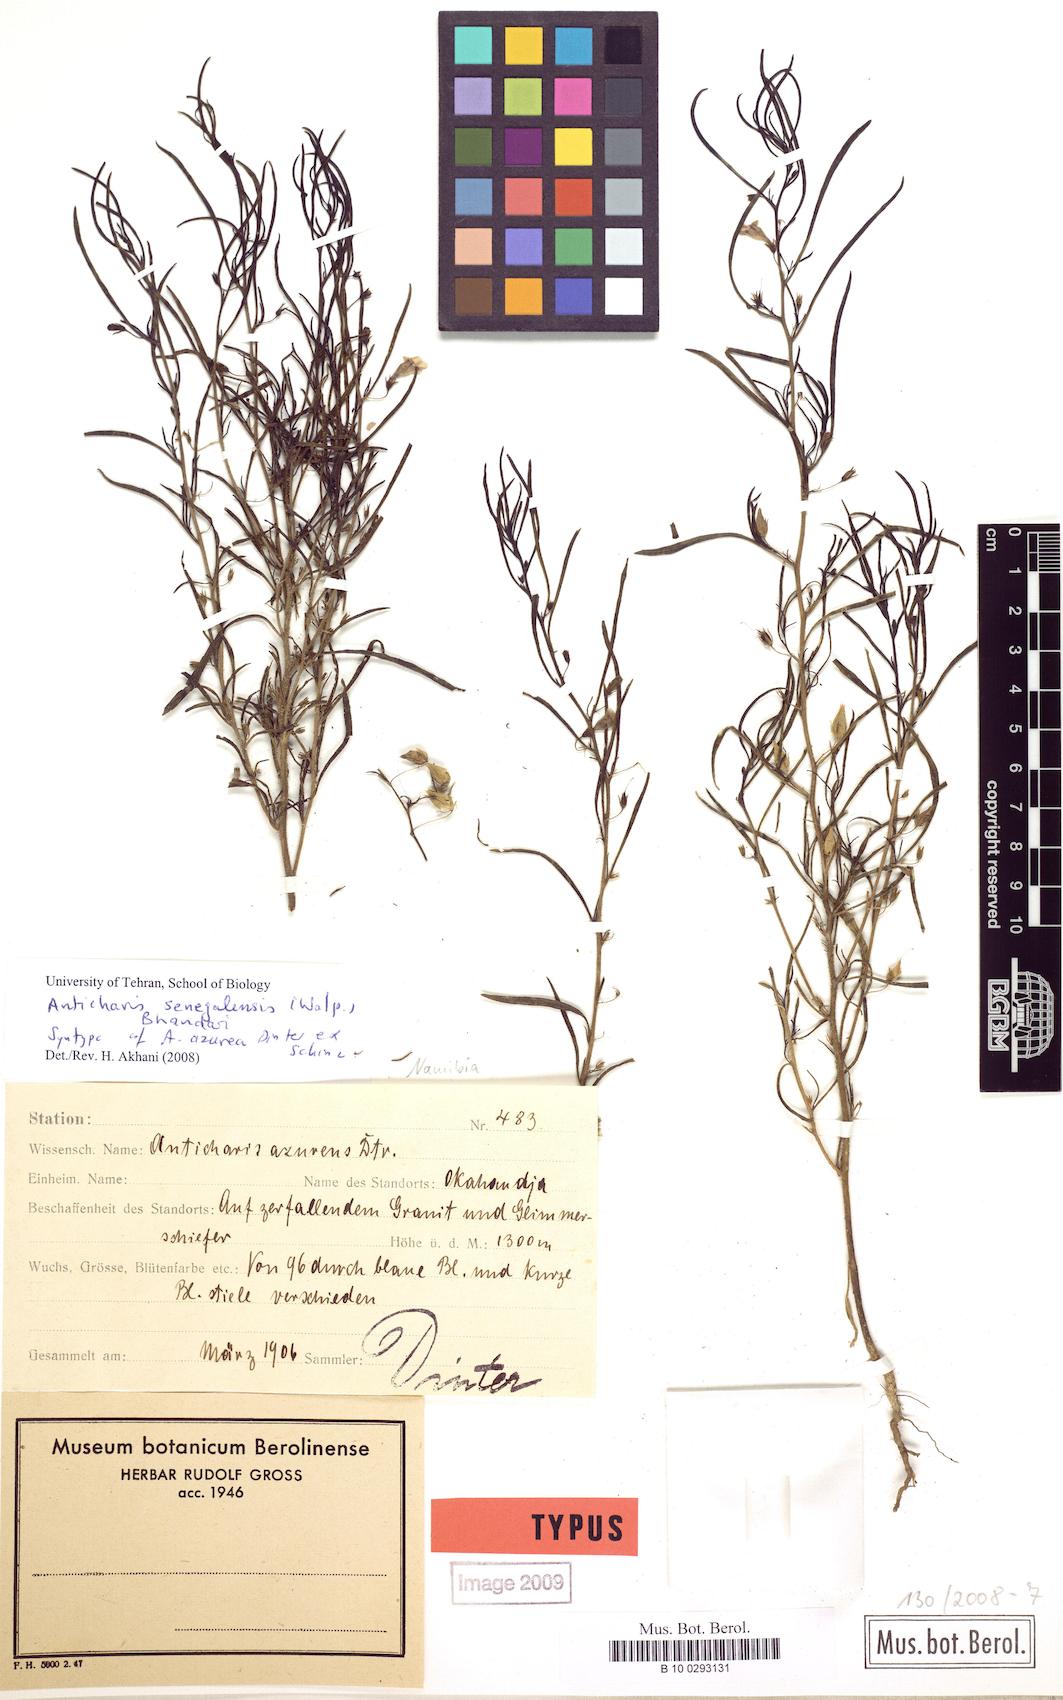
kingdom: Plantae
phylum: Tracheophyta
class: Magnoliopsida
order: Lamiales
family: Scrophulariaceae
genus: Anticharis
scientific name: Anticharis senegalensis
